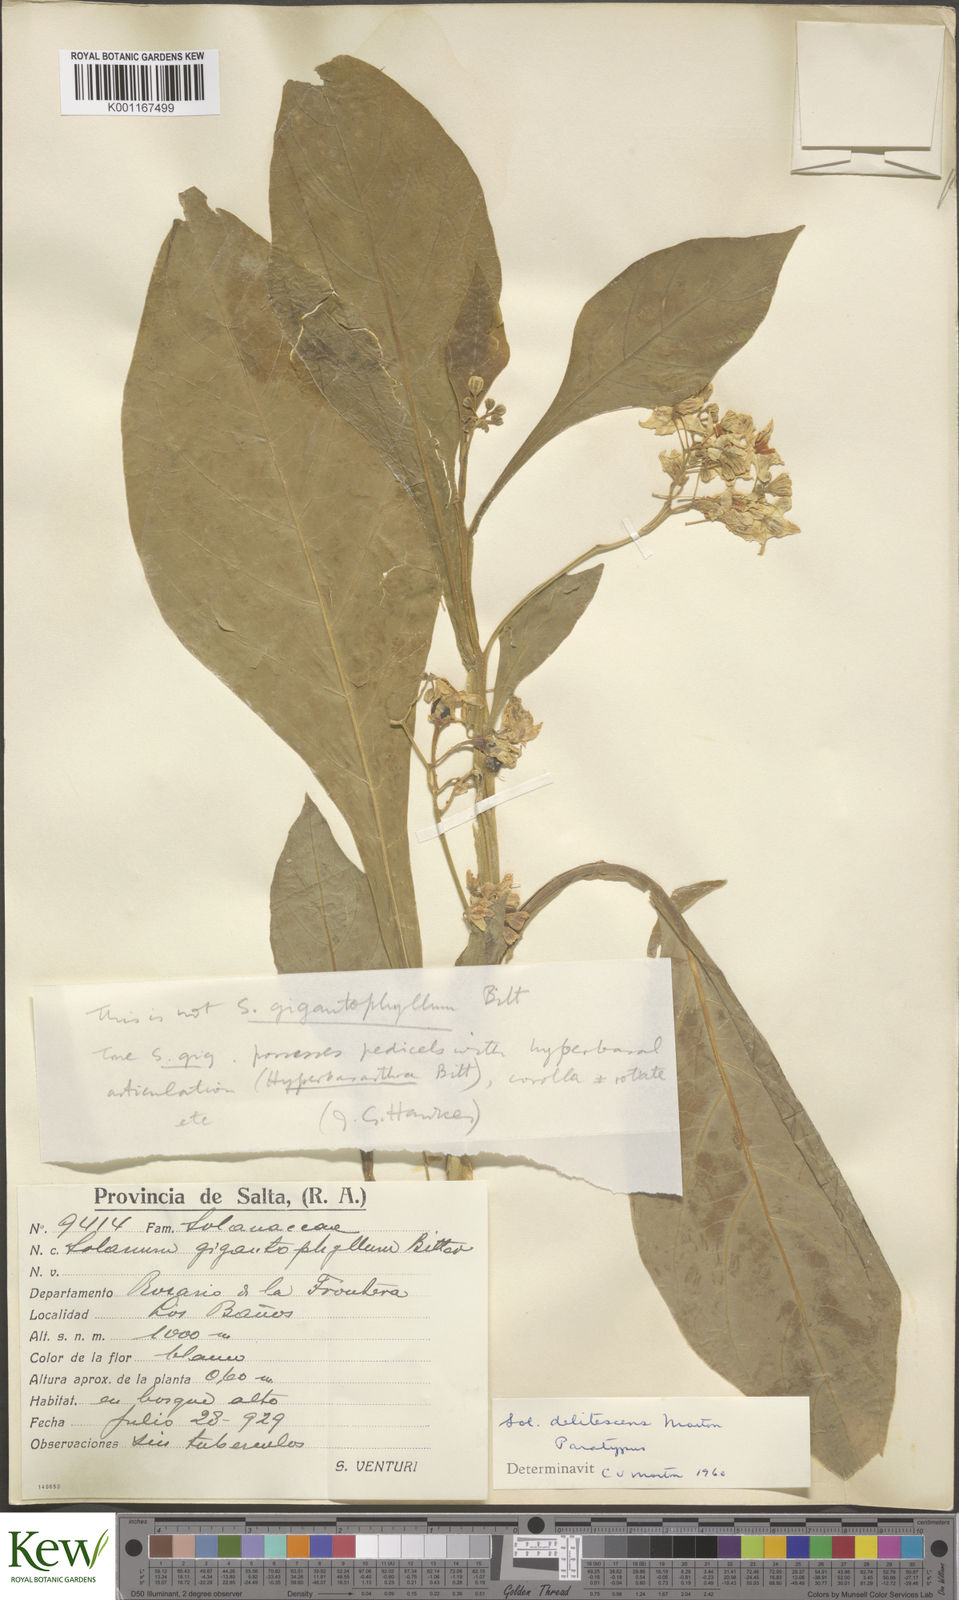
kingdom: Plantae
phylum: Tracheophyta
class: Magnoliopsida
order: Solanales
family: Solanaceae
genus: Solanum
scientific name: Solanum delitescens
